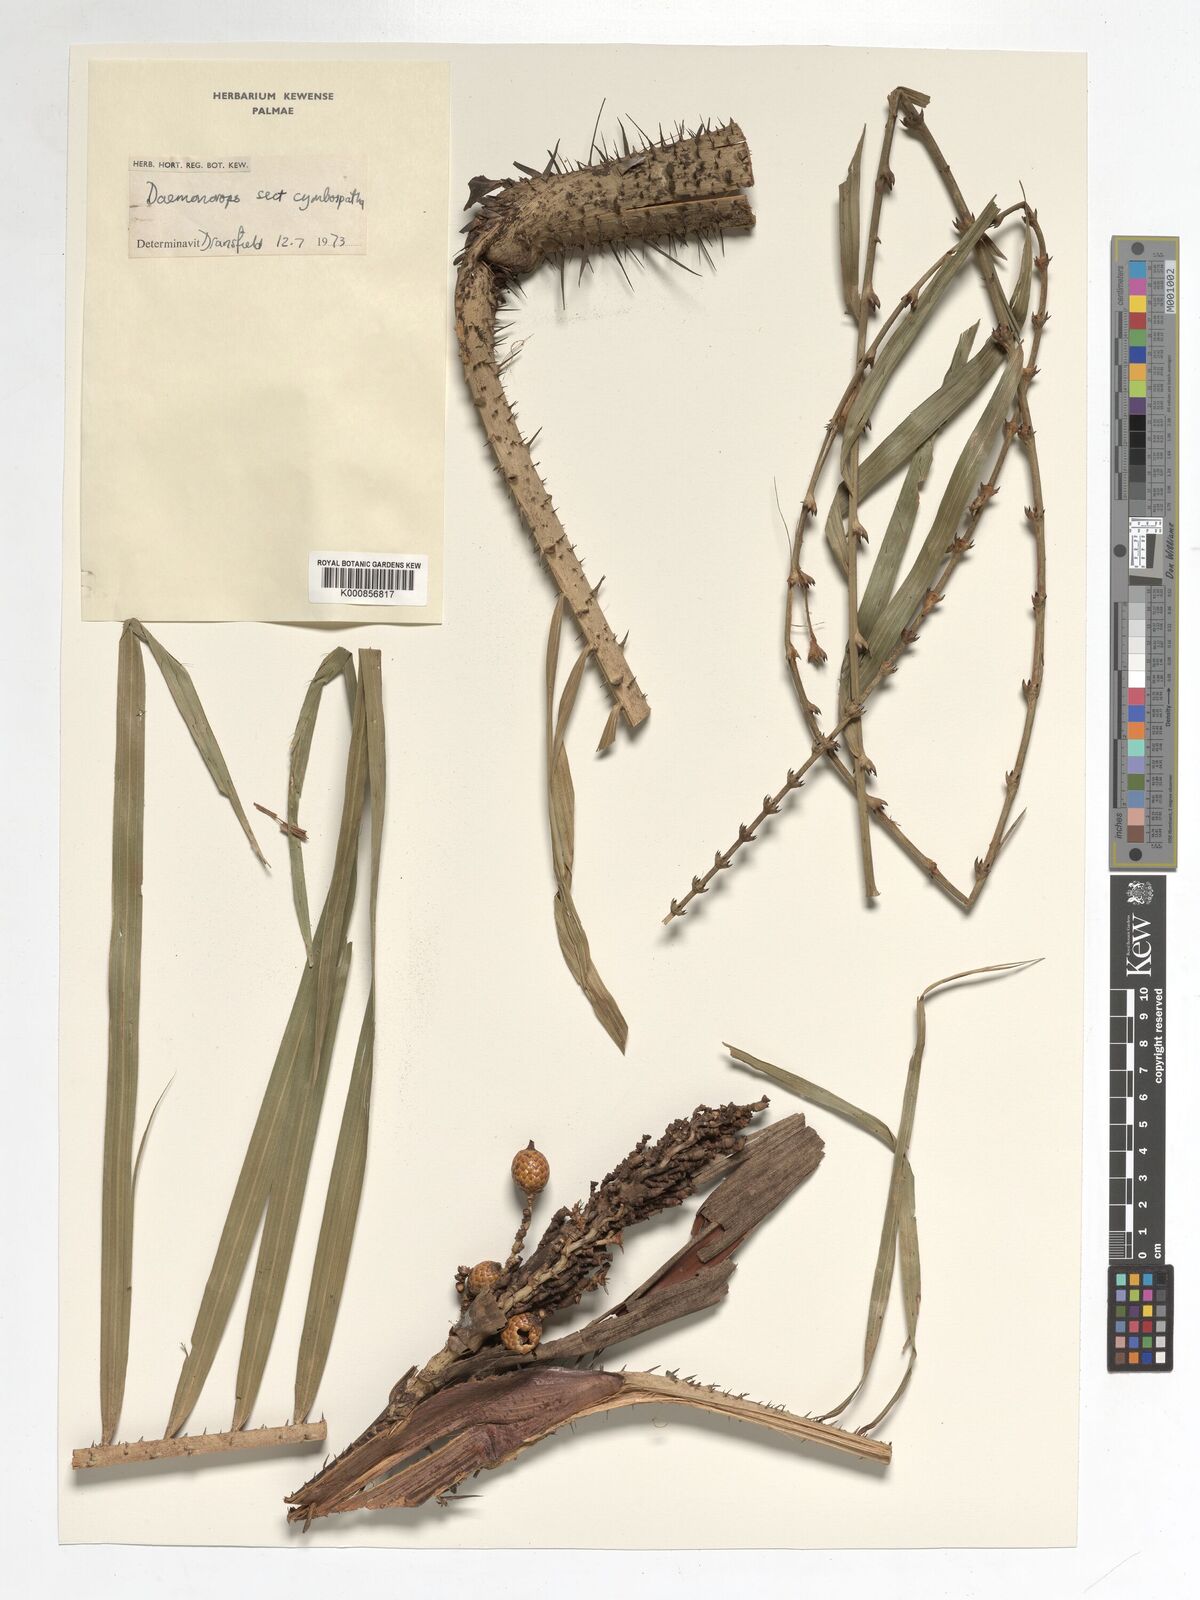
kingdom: Plantae
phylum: Tracheophyta
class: Liliopsida
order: Arecales
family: Arecaceae
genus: Daemonorops
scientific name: Daemonorops
